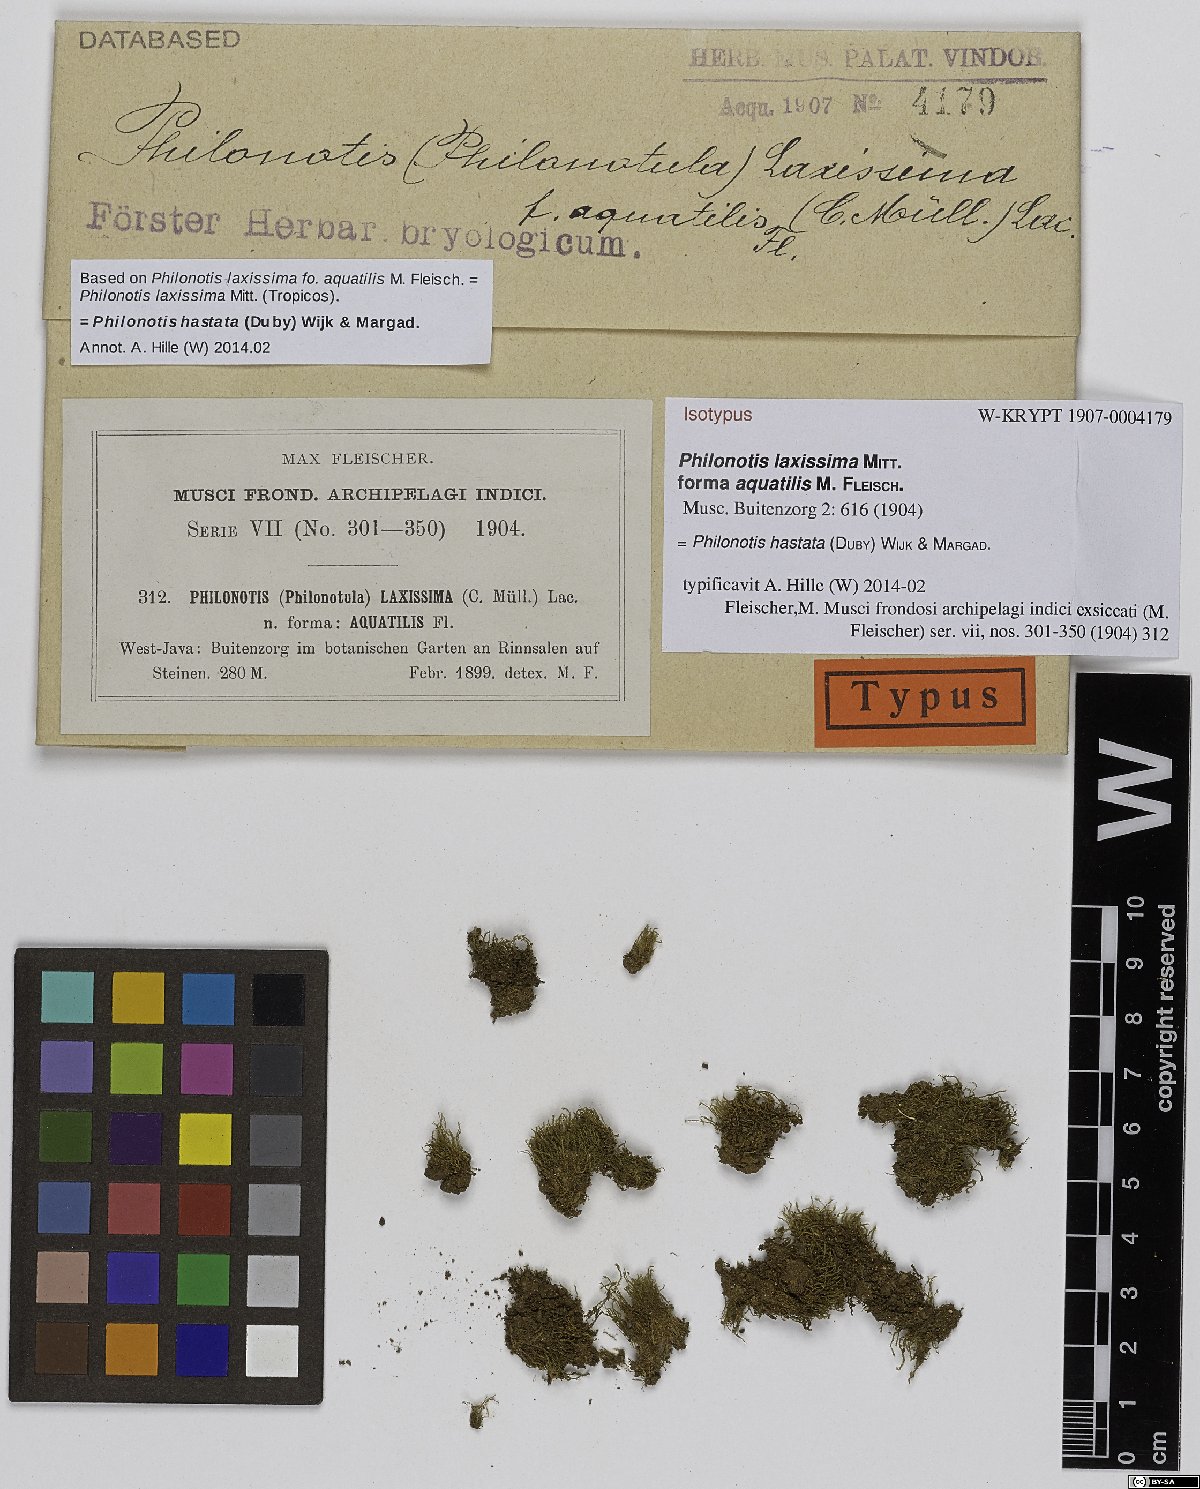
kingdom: Plantae
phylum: Bryophyta
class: Bryopsida
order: Bartramiales
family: Bartramiaceae
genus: Philonotis
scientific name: Philonotis hastata
